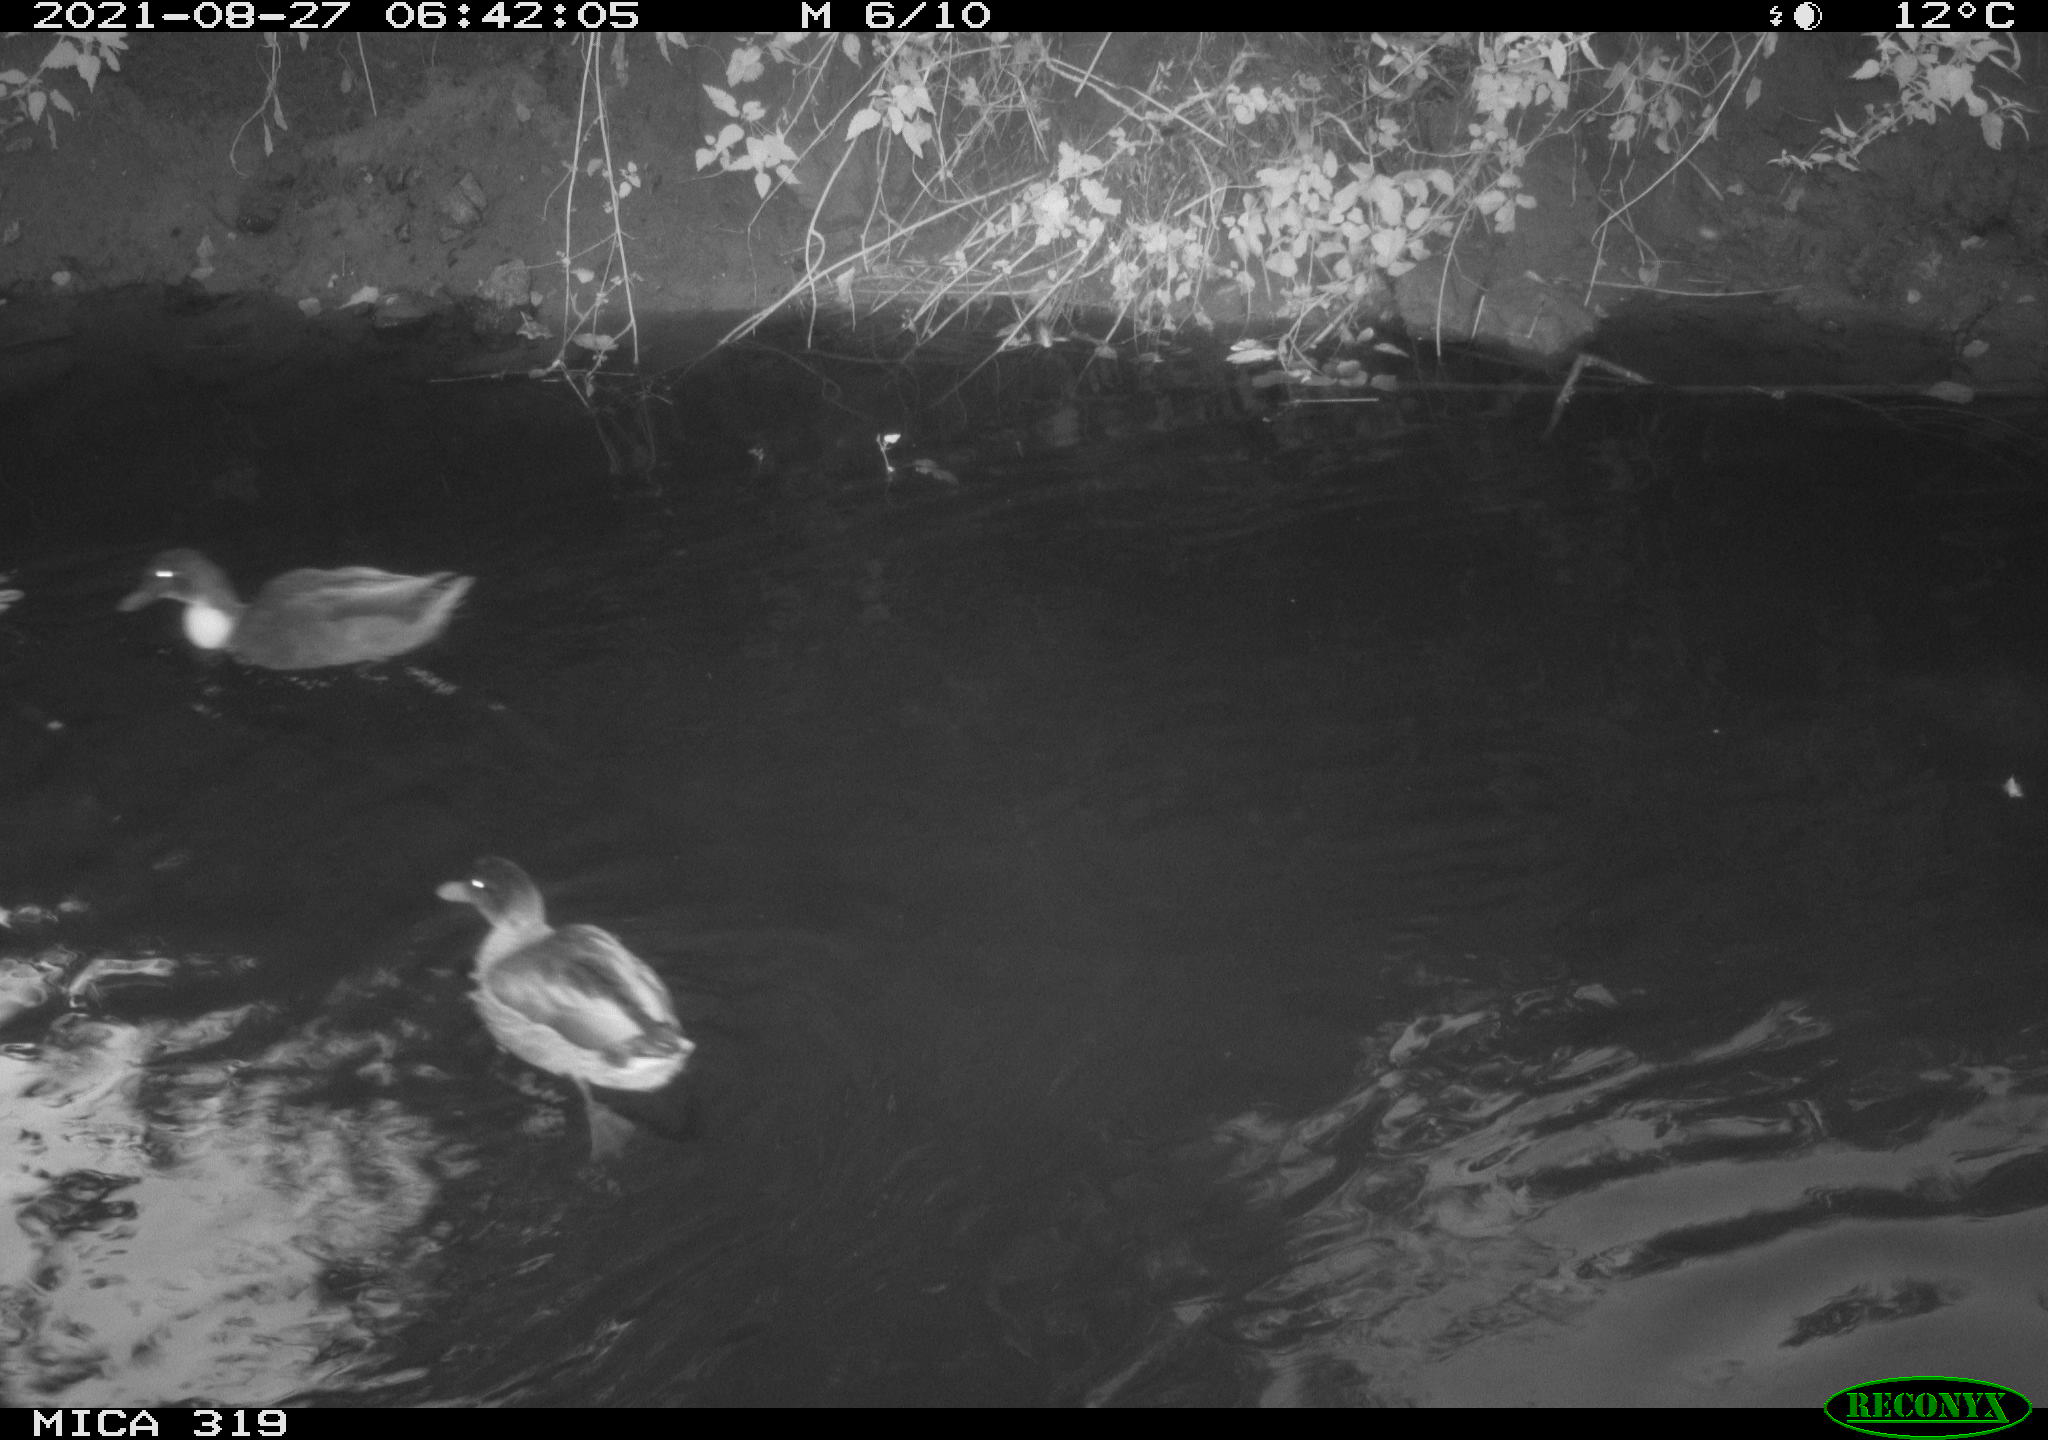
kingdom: Animalia
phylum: Chordata
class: Aves
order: Anseriformes
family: Anatidae
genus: Anas
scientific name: Anas platyrhynchos
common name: Mallard
